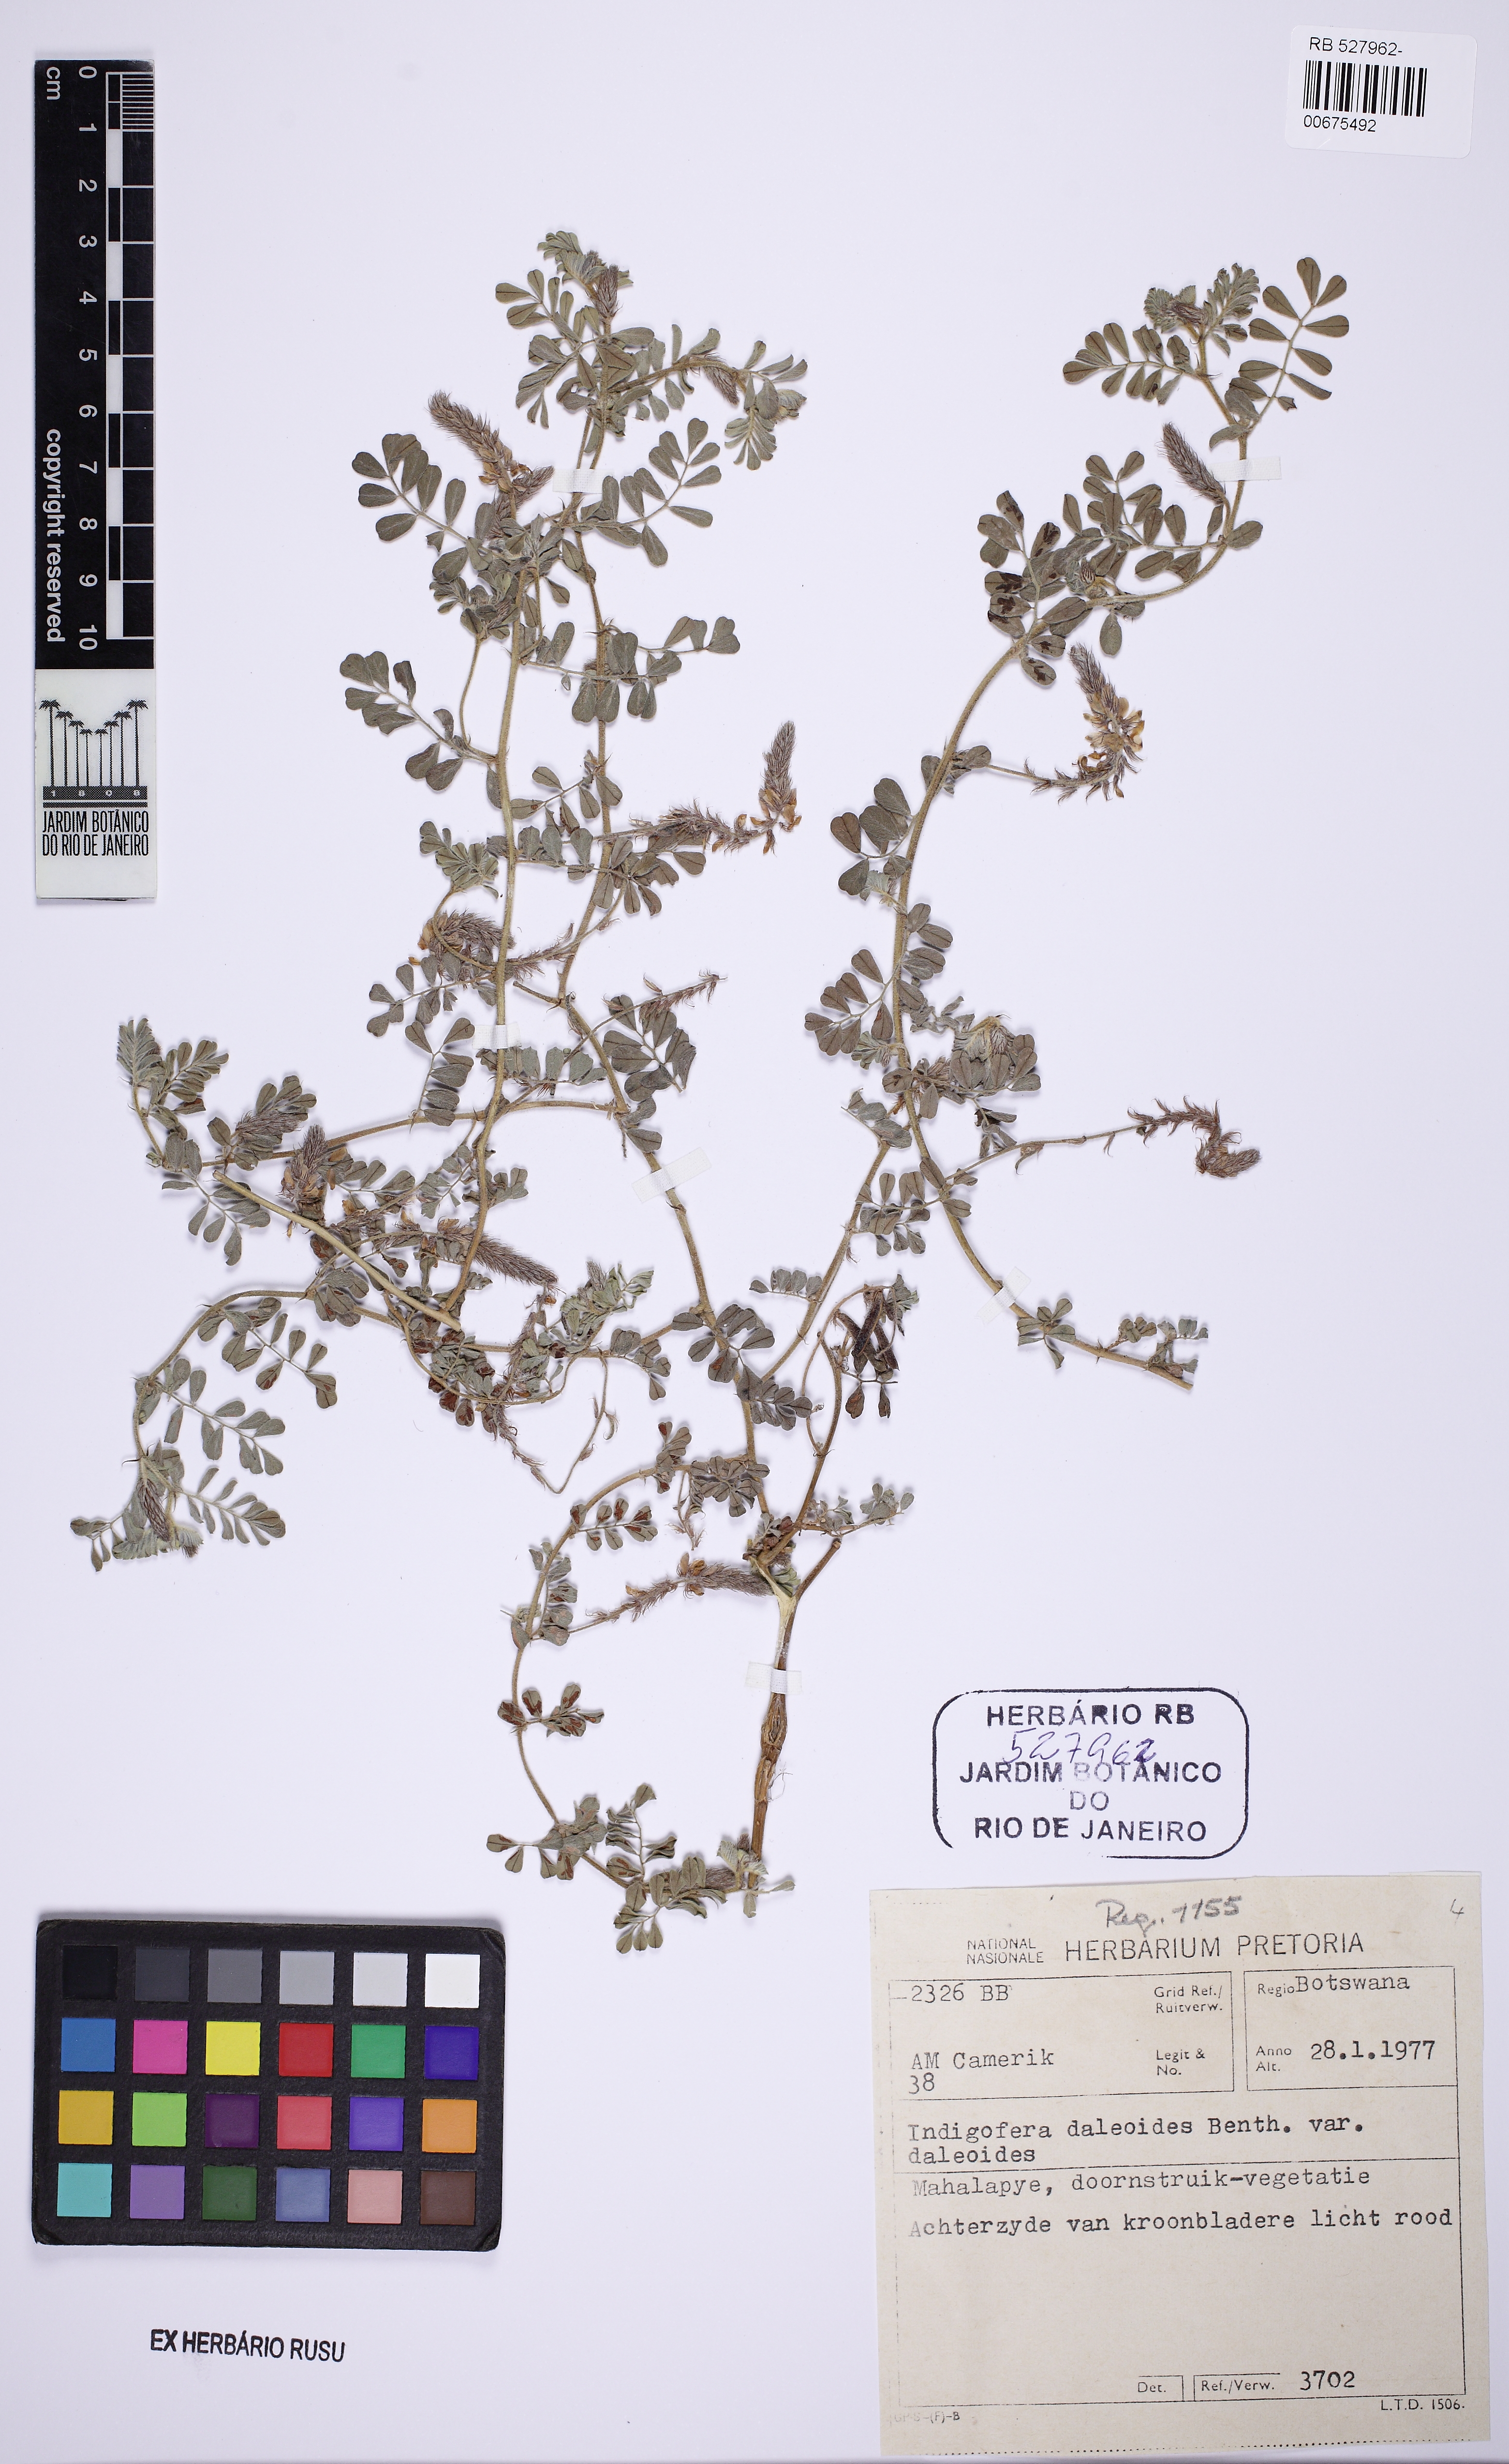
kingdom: Plantae
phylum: Tracheophyta
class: Magnoliopsida
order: Fabales
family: Fabaceae
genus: Indigofera
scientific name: Indigofera daleoides
